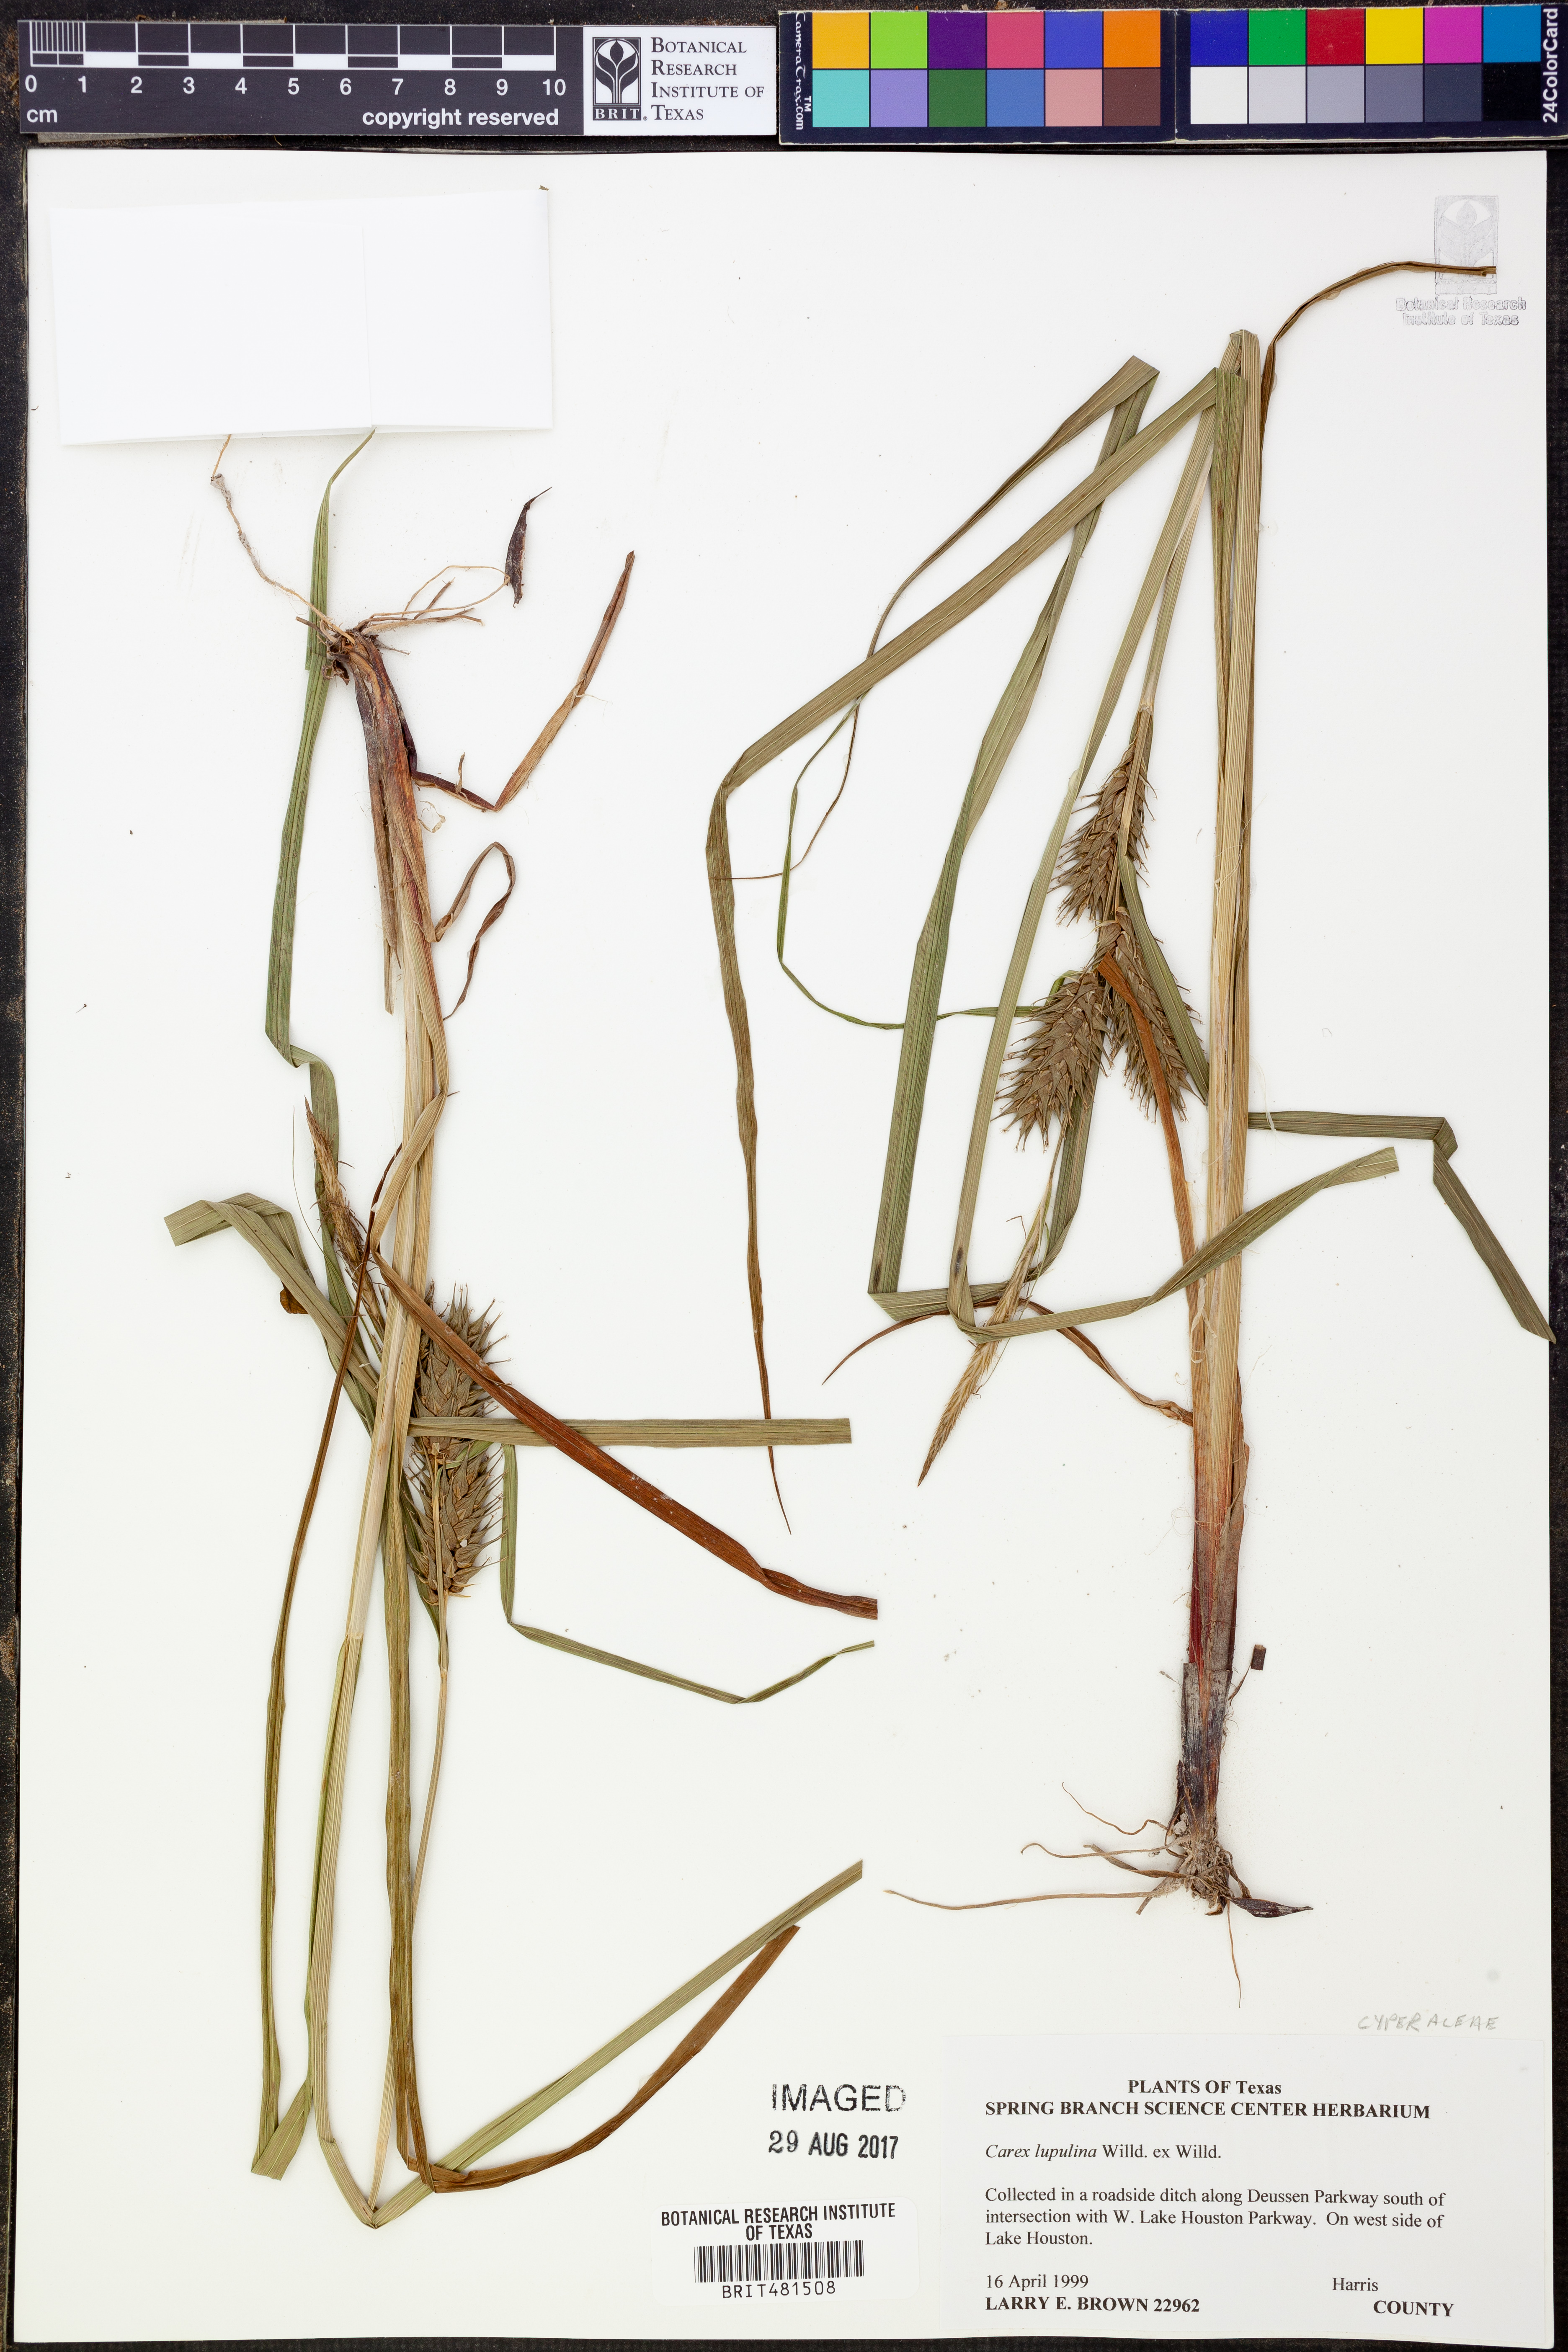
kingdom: Plantae
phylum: Tracheophyta
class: Liliopsida
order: Poales
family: Cyperaceae
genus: Carex
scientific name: Carex lupulina
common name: Hop sedge
